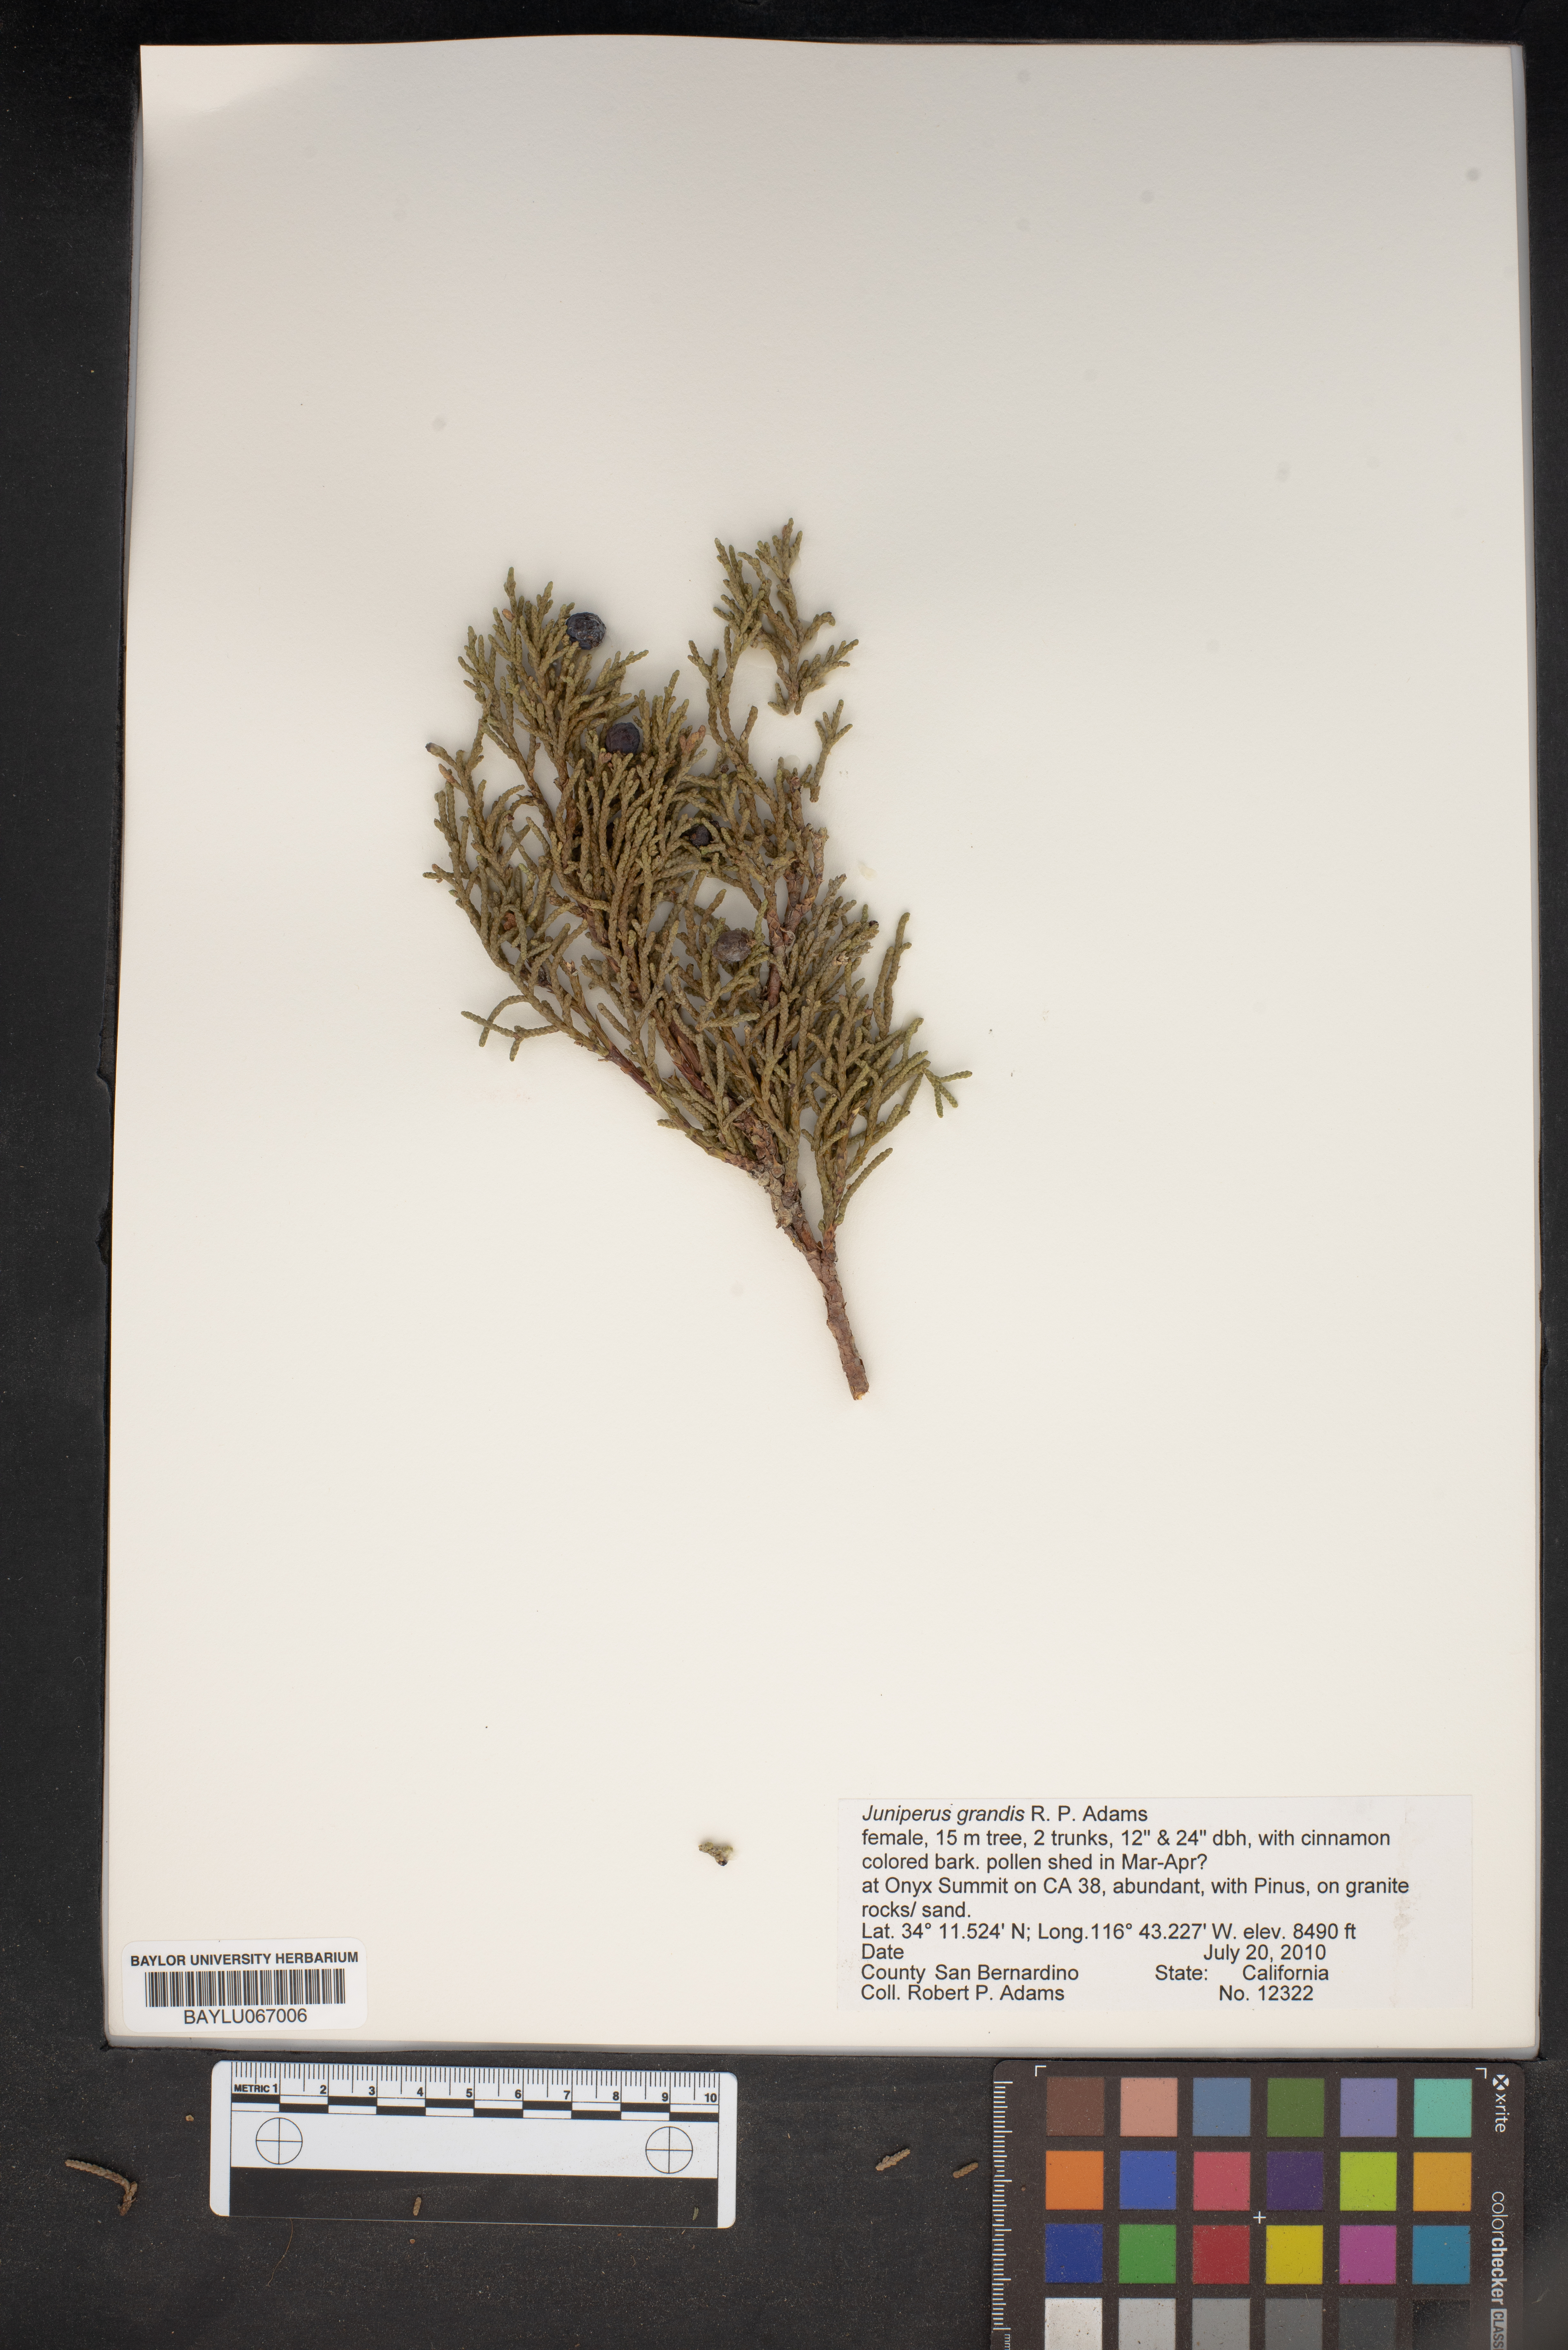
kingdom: Plantae
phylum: Tracheophyta
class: Pinopsida
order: Pinales
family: Cupressaceae
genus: Juniperus
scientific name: Juniperus occidentalis
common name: Western juniper
